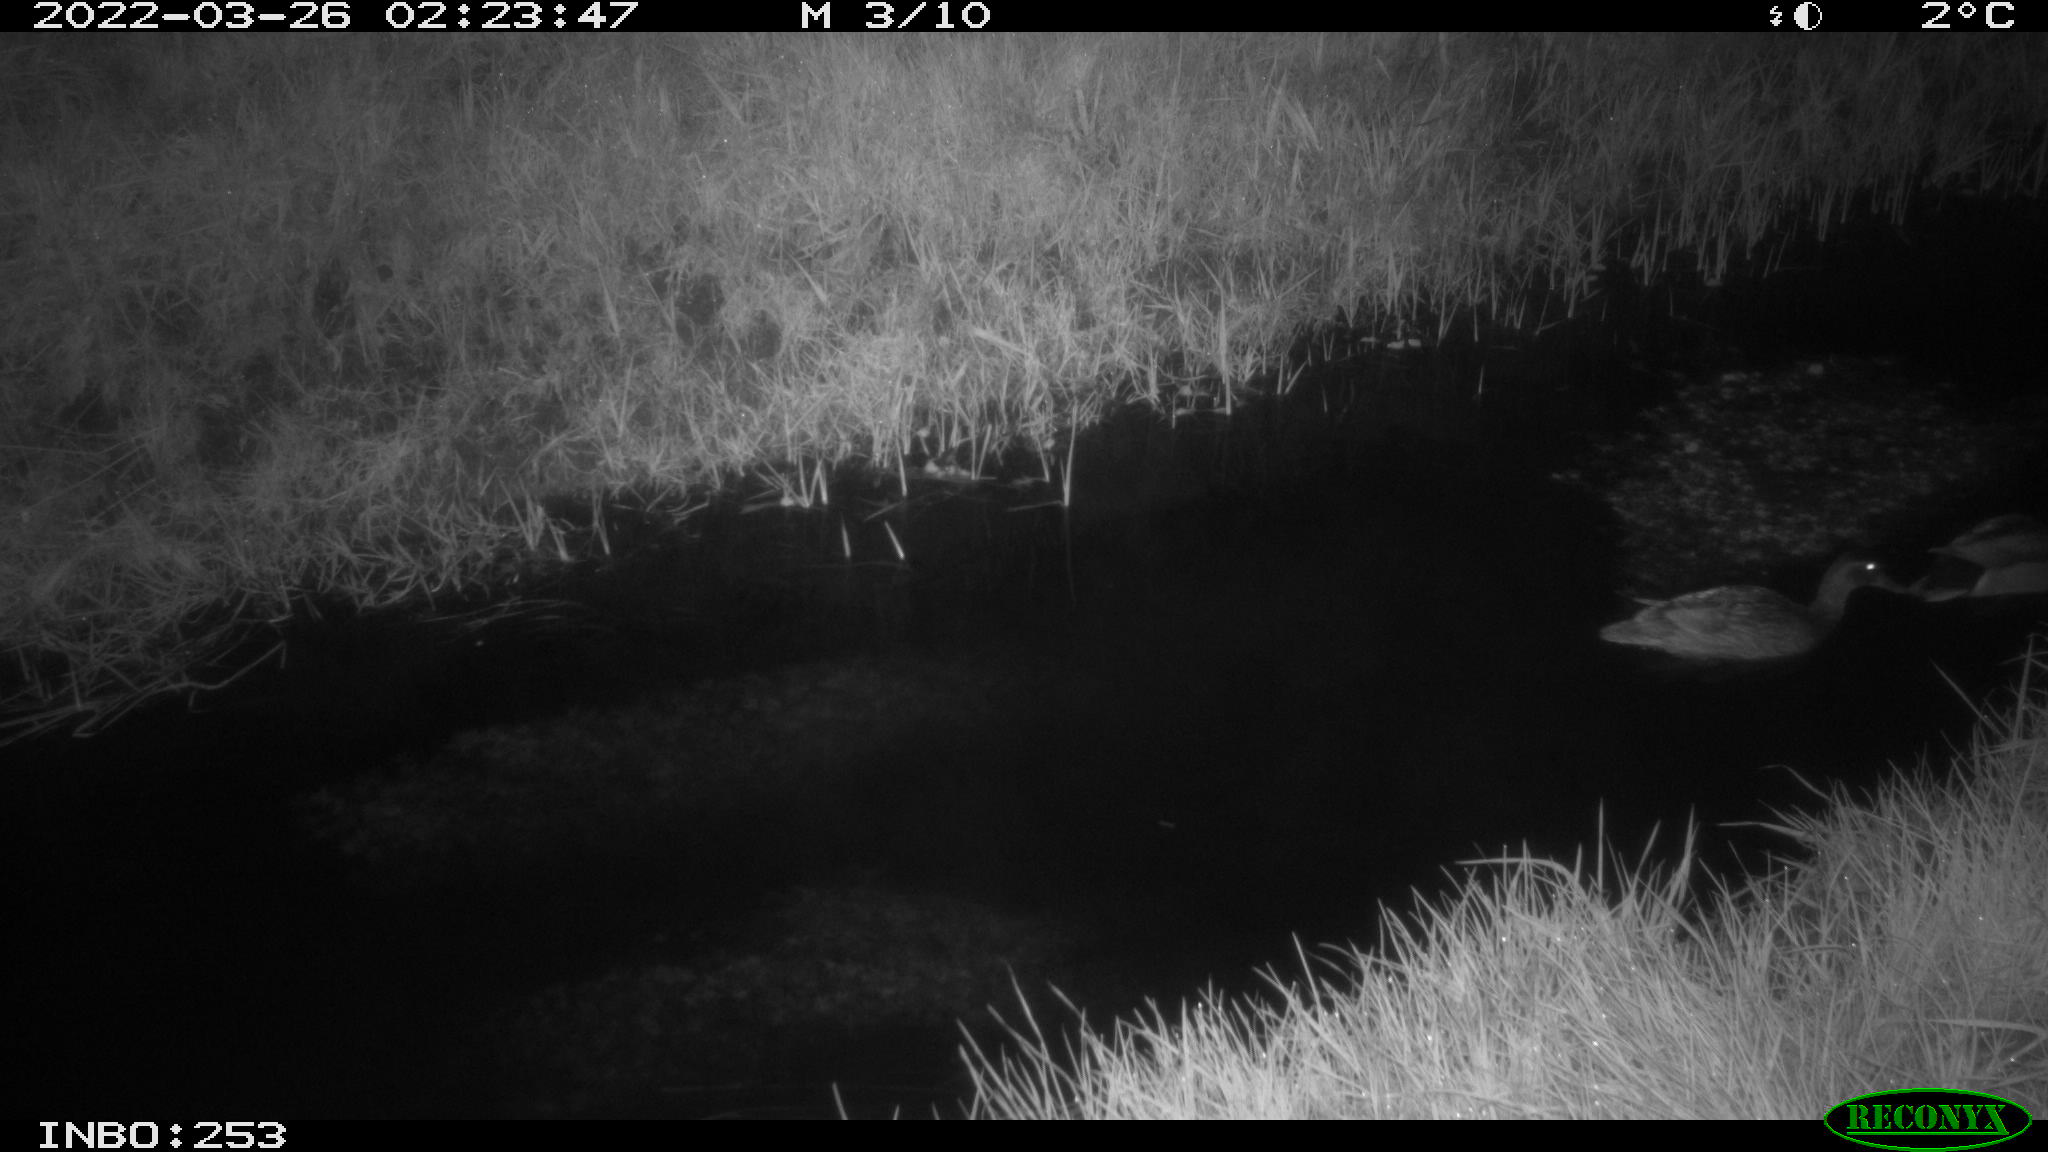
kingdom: Animalia
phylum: Chordata
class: Aves
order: Anseriformes
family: Anatidae
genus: Anas
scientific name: Anas platyrhynchos
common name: Mallard
